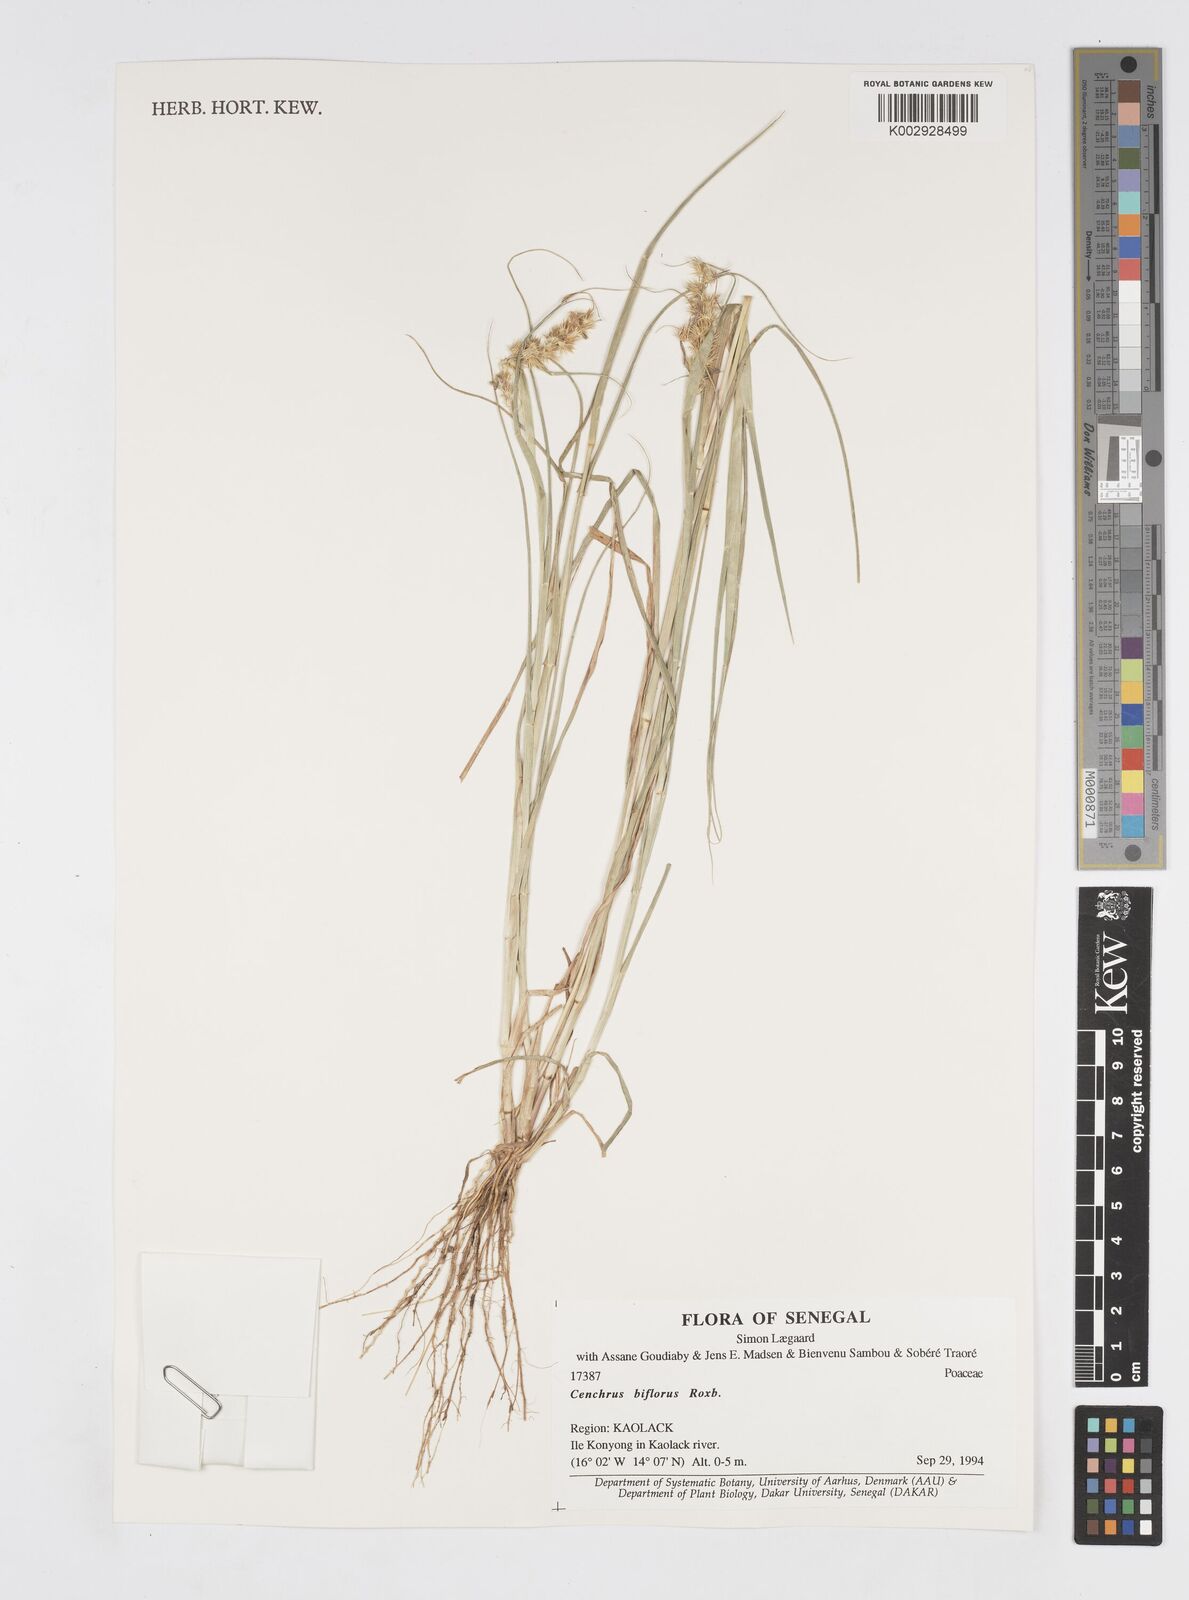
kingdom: Plantae
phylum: Tracheophyta
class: Liliopsida
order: Poales
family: Poaceae
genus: Cenchrus
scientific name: Cenchrus biflorus
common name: Indian sandbur
